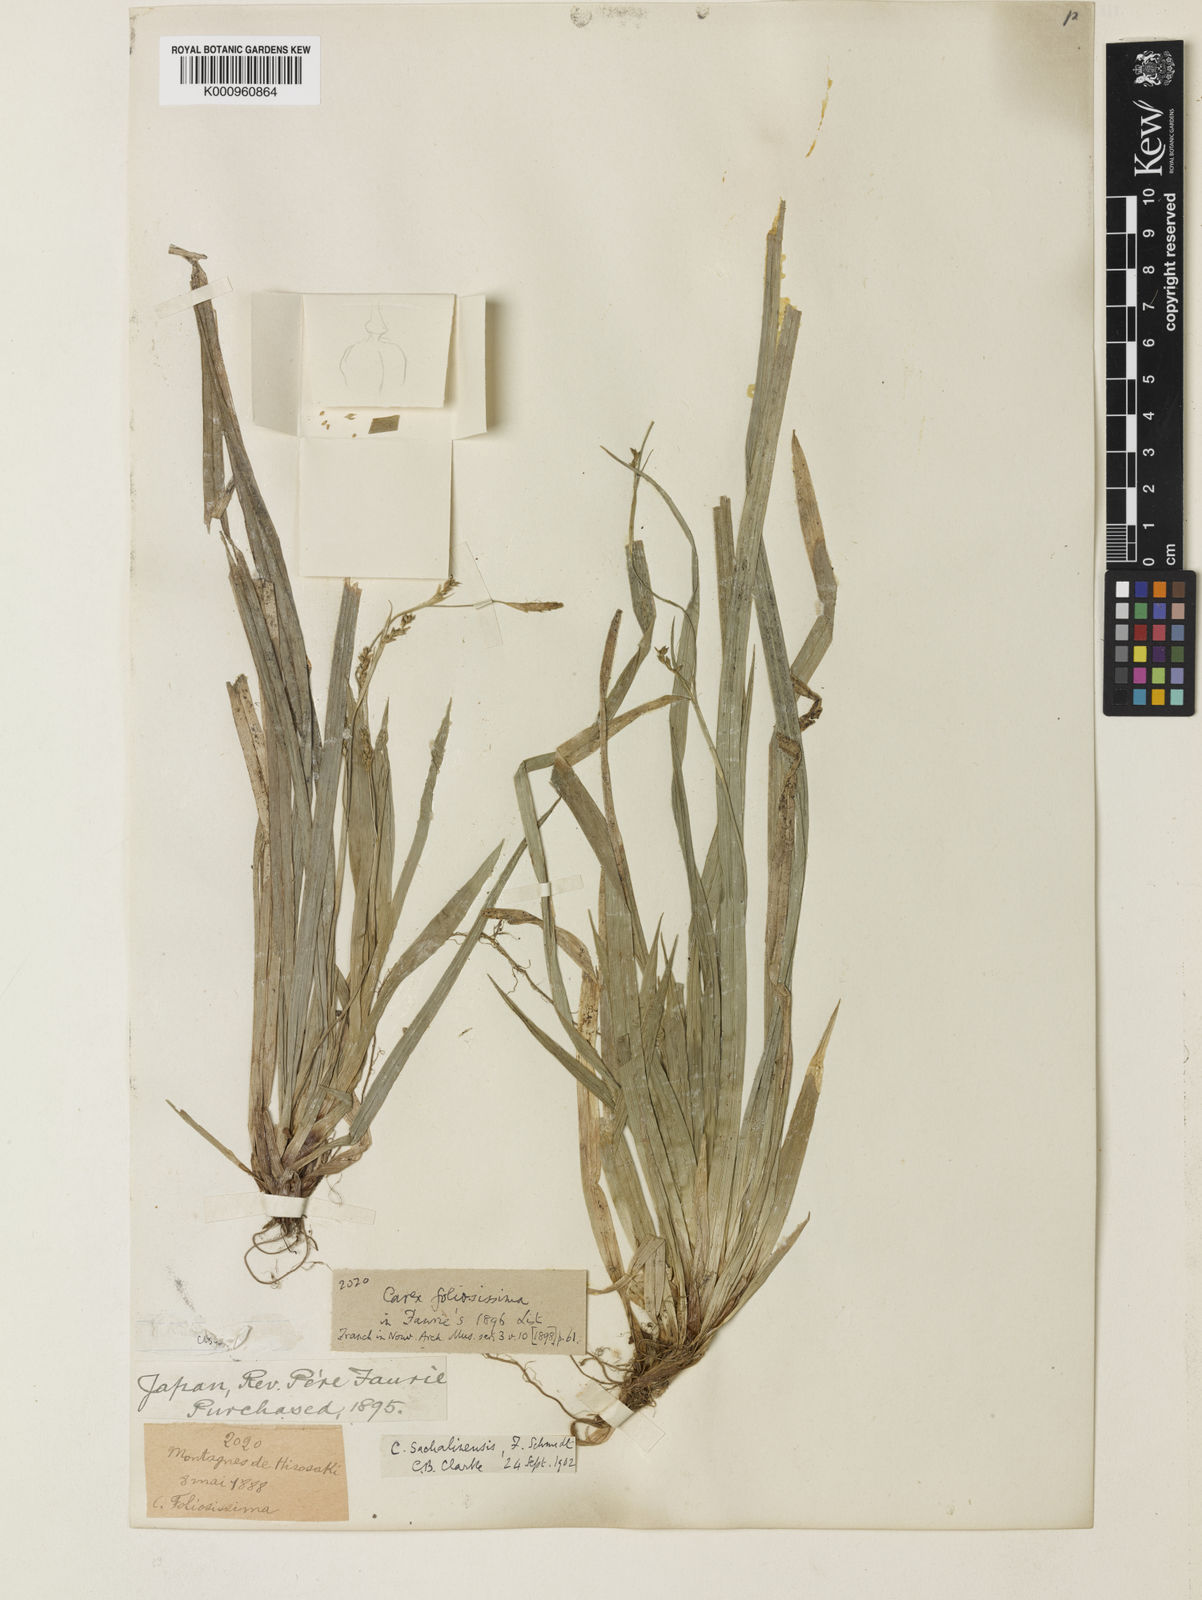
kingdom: Plantae
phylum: Tracheophyta
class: Liliopsida
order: Poales
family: Cyperaceae
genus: Carex
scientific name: Carex foliosissima
